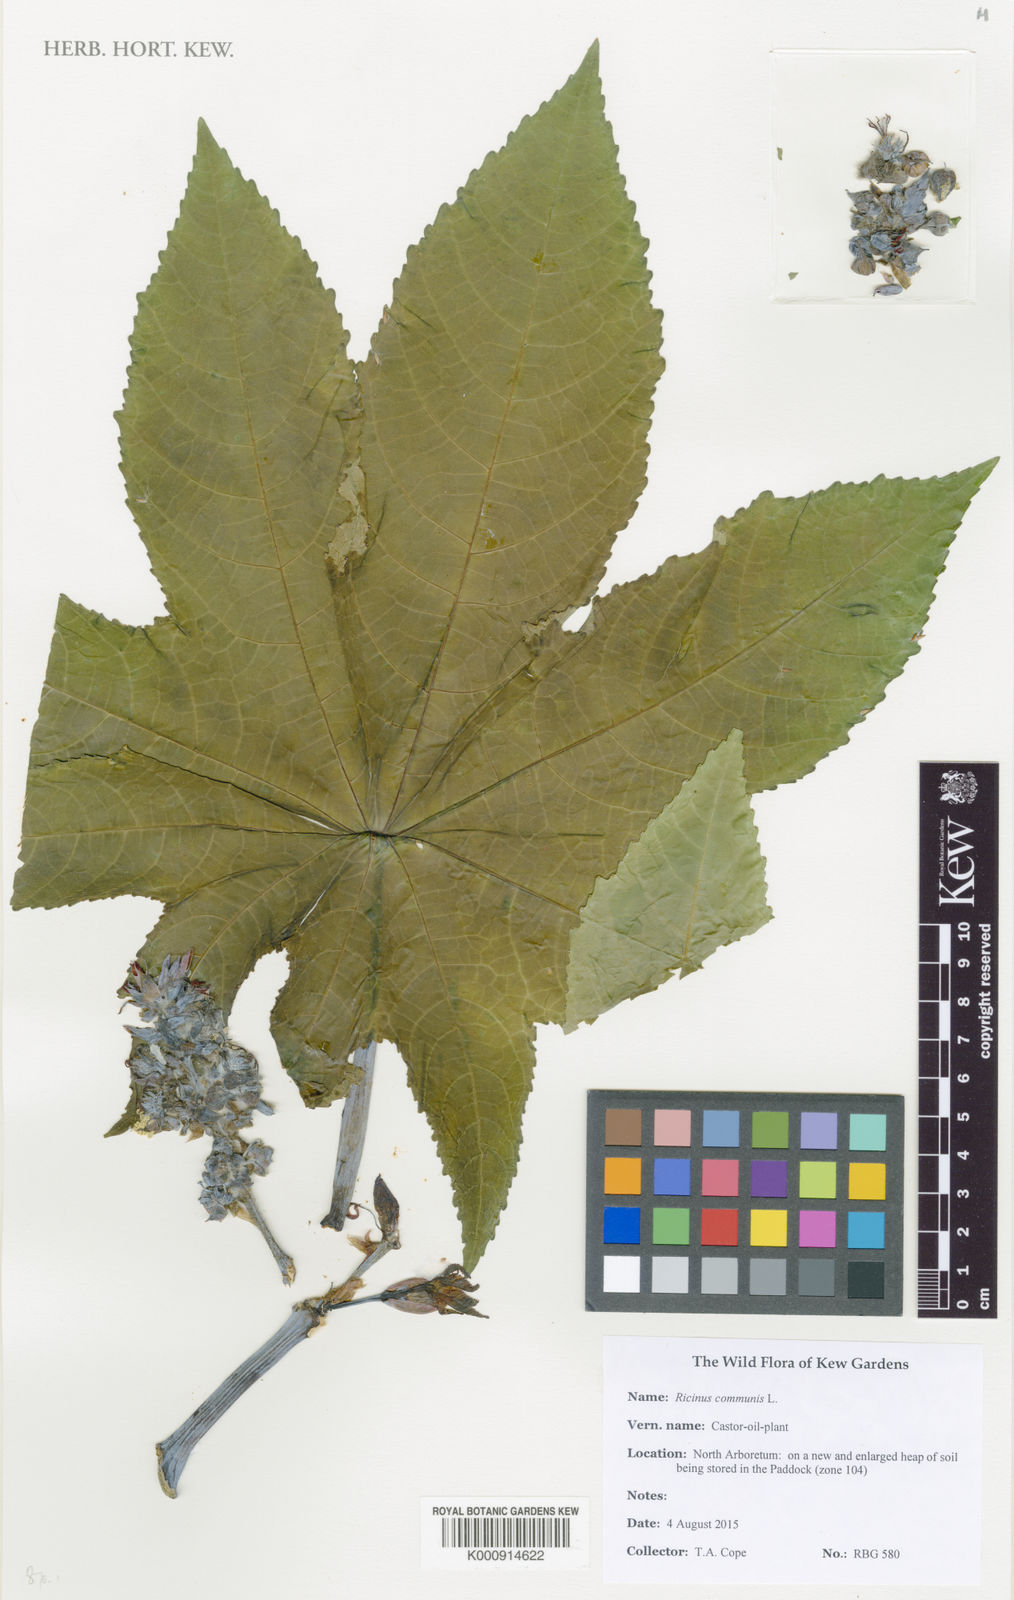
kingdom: Plantae
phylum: Tracheophyta
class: Magnoliopsida
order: Malpighiales
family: Euphorbiaceae
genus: Ricinus
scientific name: Ricinus communis
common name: Castor-oil-plant
